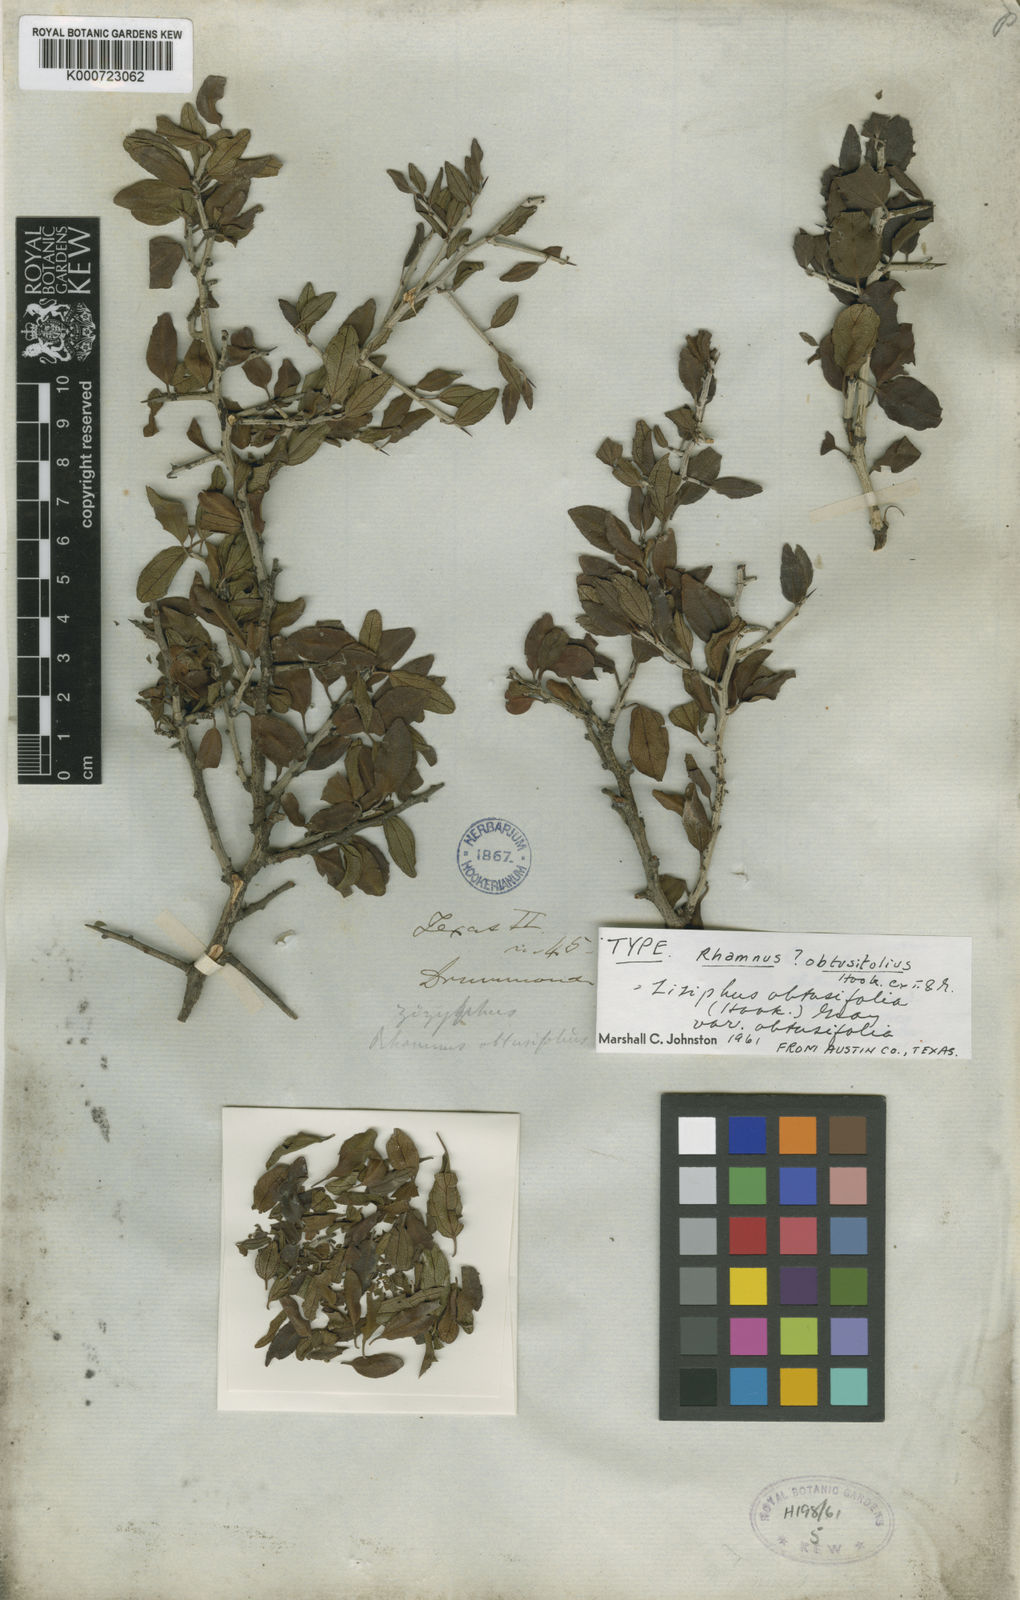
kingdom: Plantae
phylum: Tracheophyta
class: Magnoliopsida
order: Rosales
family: Rhamnaceae
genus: Sarcomphalus
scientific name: Sarcomphalus obtusifolius
